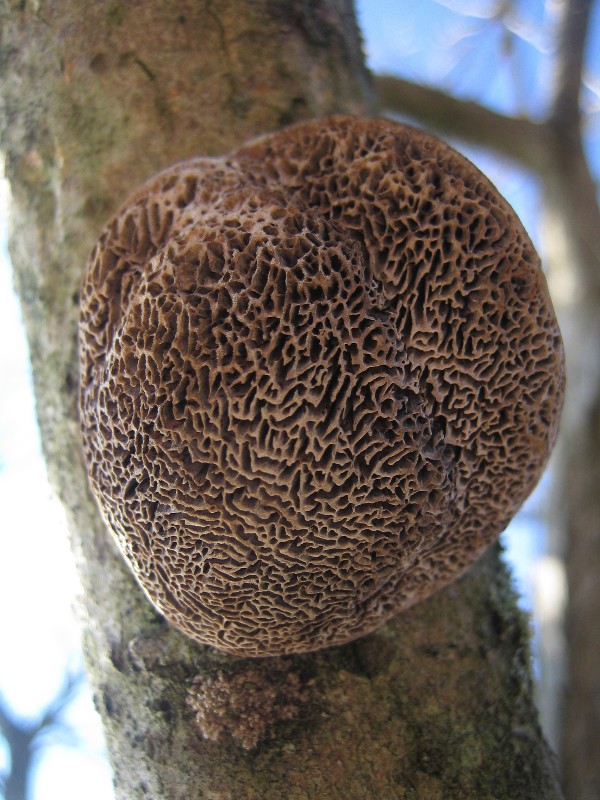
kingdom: Fungi
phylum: Basidiomycota
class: Agaricomycetes
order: Polyporales
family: Polyporaceae
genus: Daedaleopsis
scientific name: Daedaleopsis confragosa
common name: rødmende læderporesvamp
